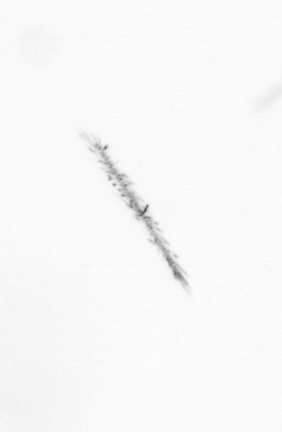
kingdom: Chromista
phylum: Ochrophyta
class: Bacillariophyceae
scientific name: Bacillariophyceae
